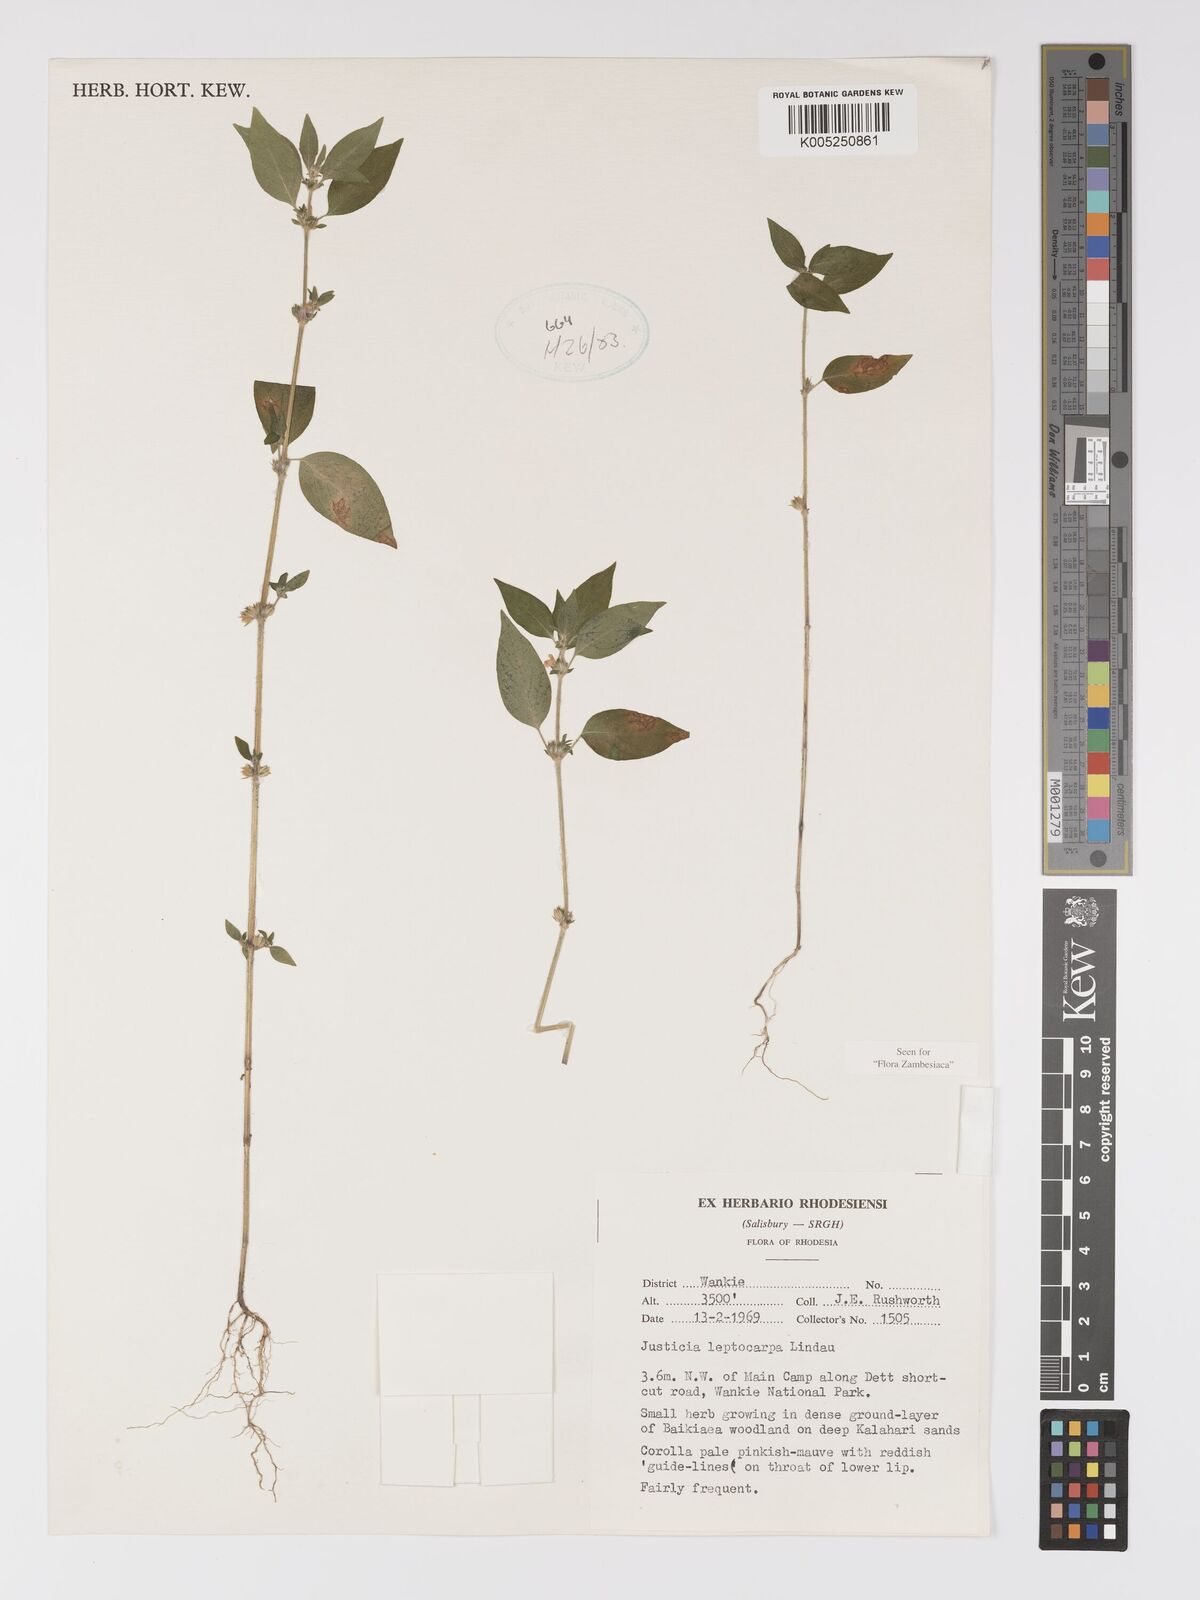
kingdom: Plantae
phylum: Tracheophyta
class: Magnoliopsida
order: Lamiales
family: Acanthaceae
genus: Justicia
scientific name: Justicia heterocarpa
